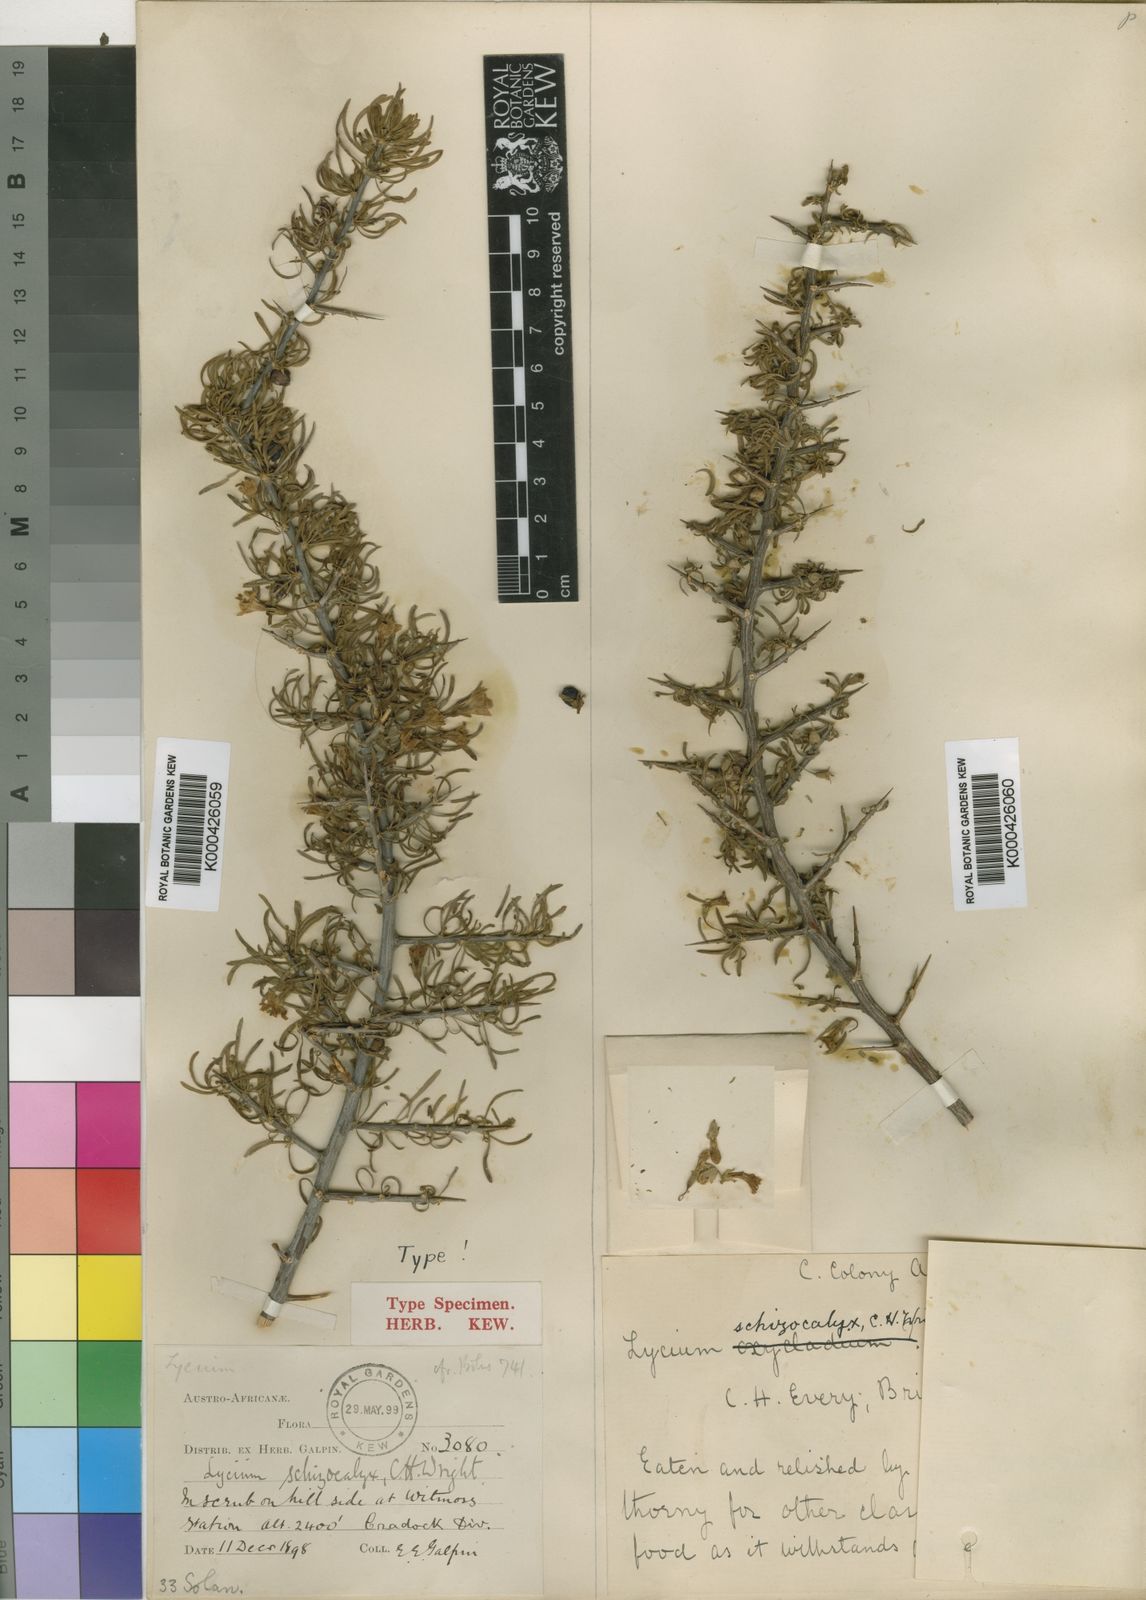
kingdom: Plantae
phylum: Tracheophyta
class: Magnoliopsida
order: Solanales
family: Solanaceae
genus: Lycium
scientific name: Lycium schizocalyx
